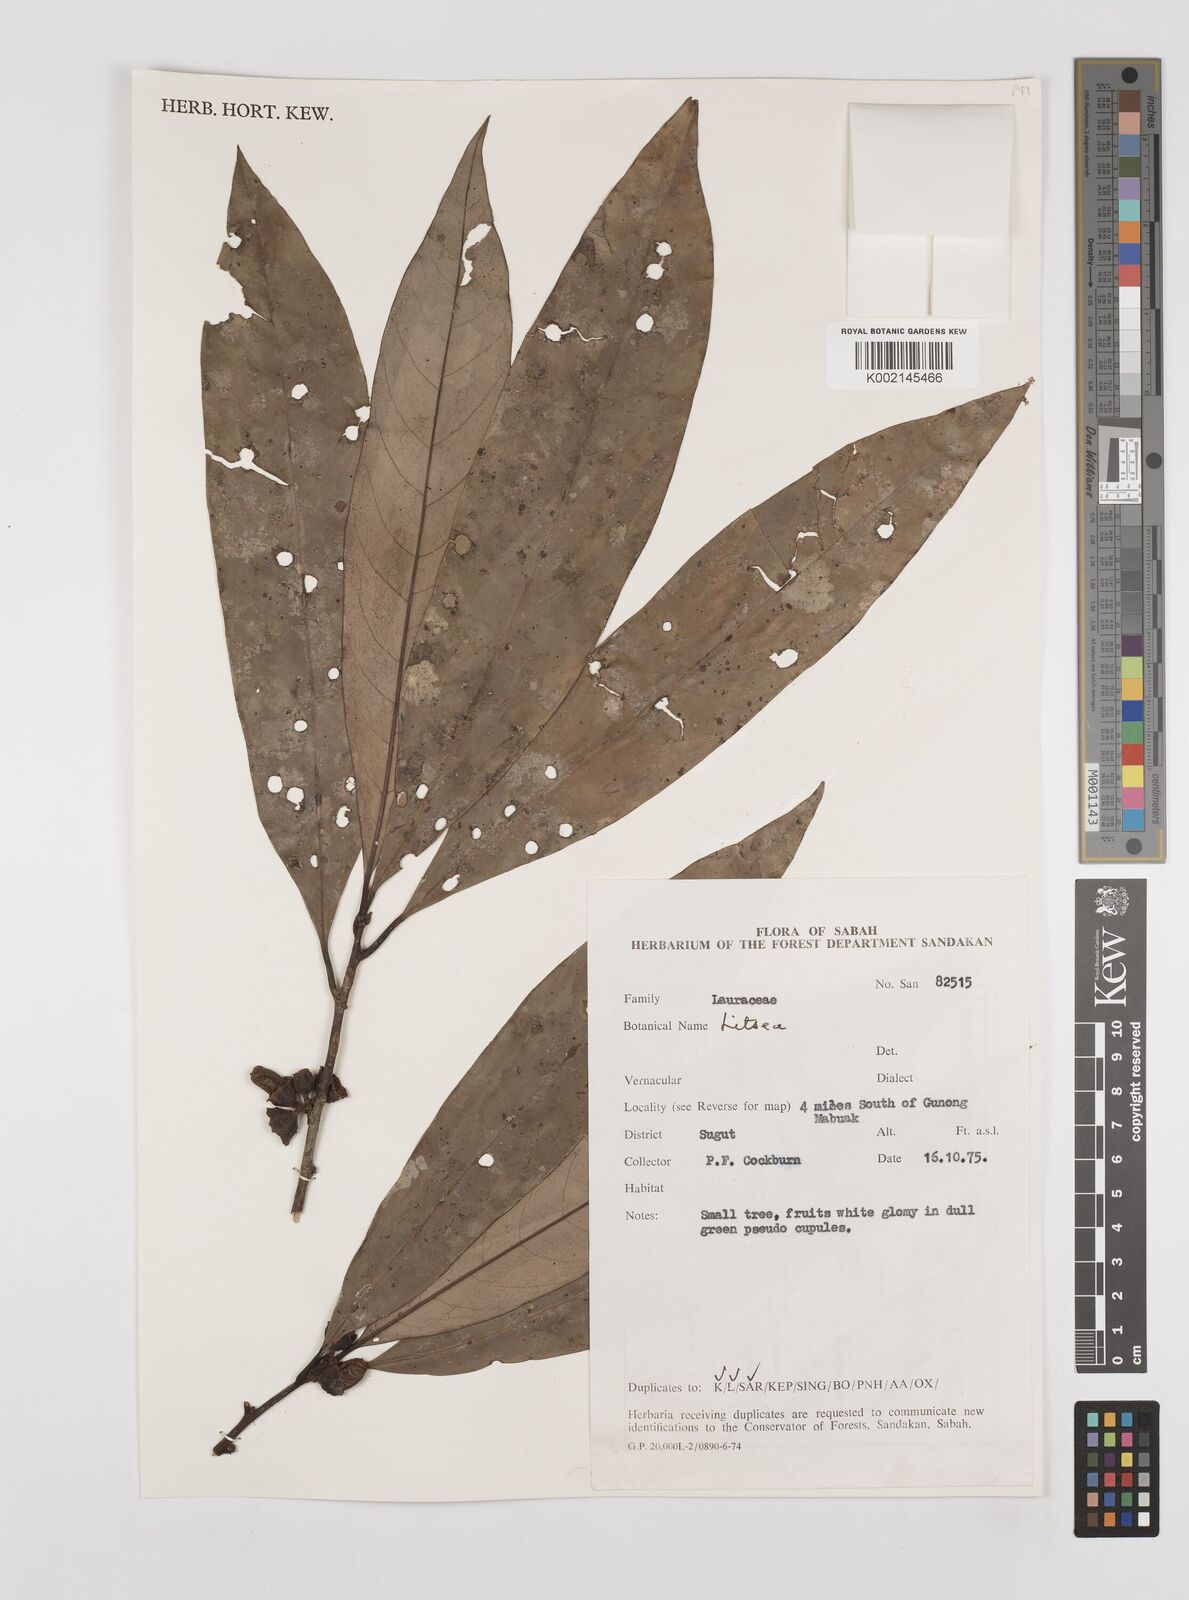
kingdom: Plantae
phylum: Tracheophyta
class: Magnoliopsida
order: Laurales
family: Lauraceae
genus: Litsea
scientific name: Litsea
